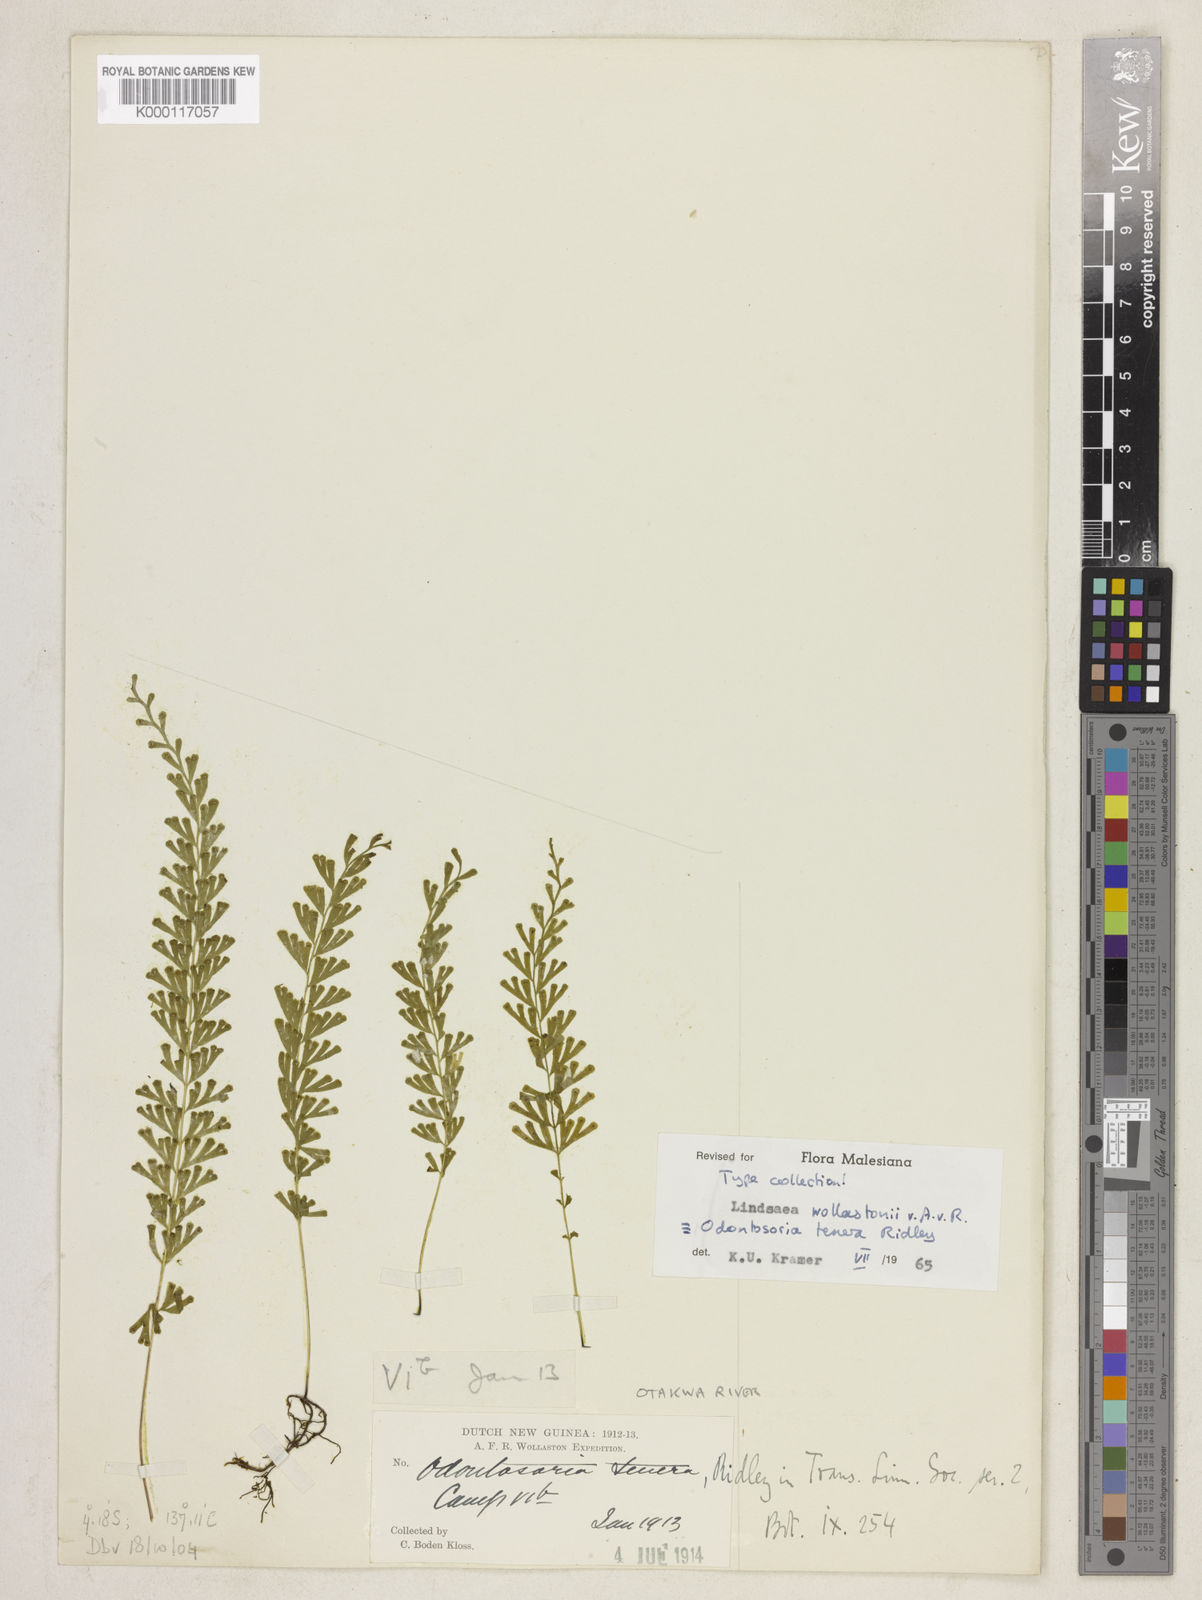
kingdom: Plantae
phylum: Tracheophyta
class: Polypodiopsida
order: Polypodiales
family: Lindsaeaceae
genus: Lindsaea
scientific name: Lindsaea roemeriana
